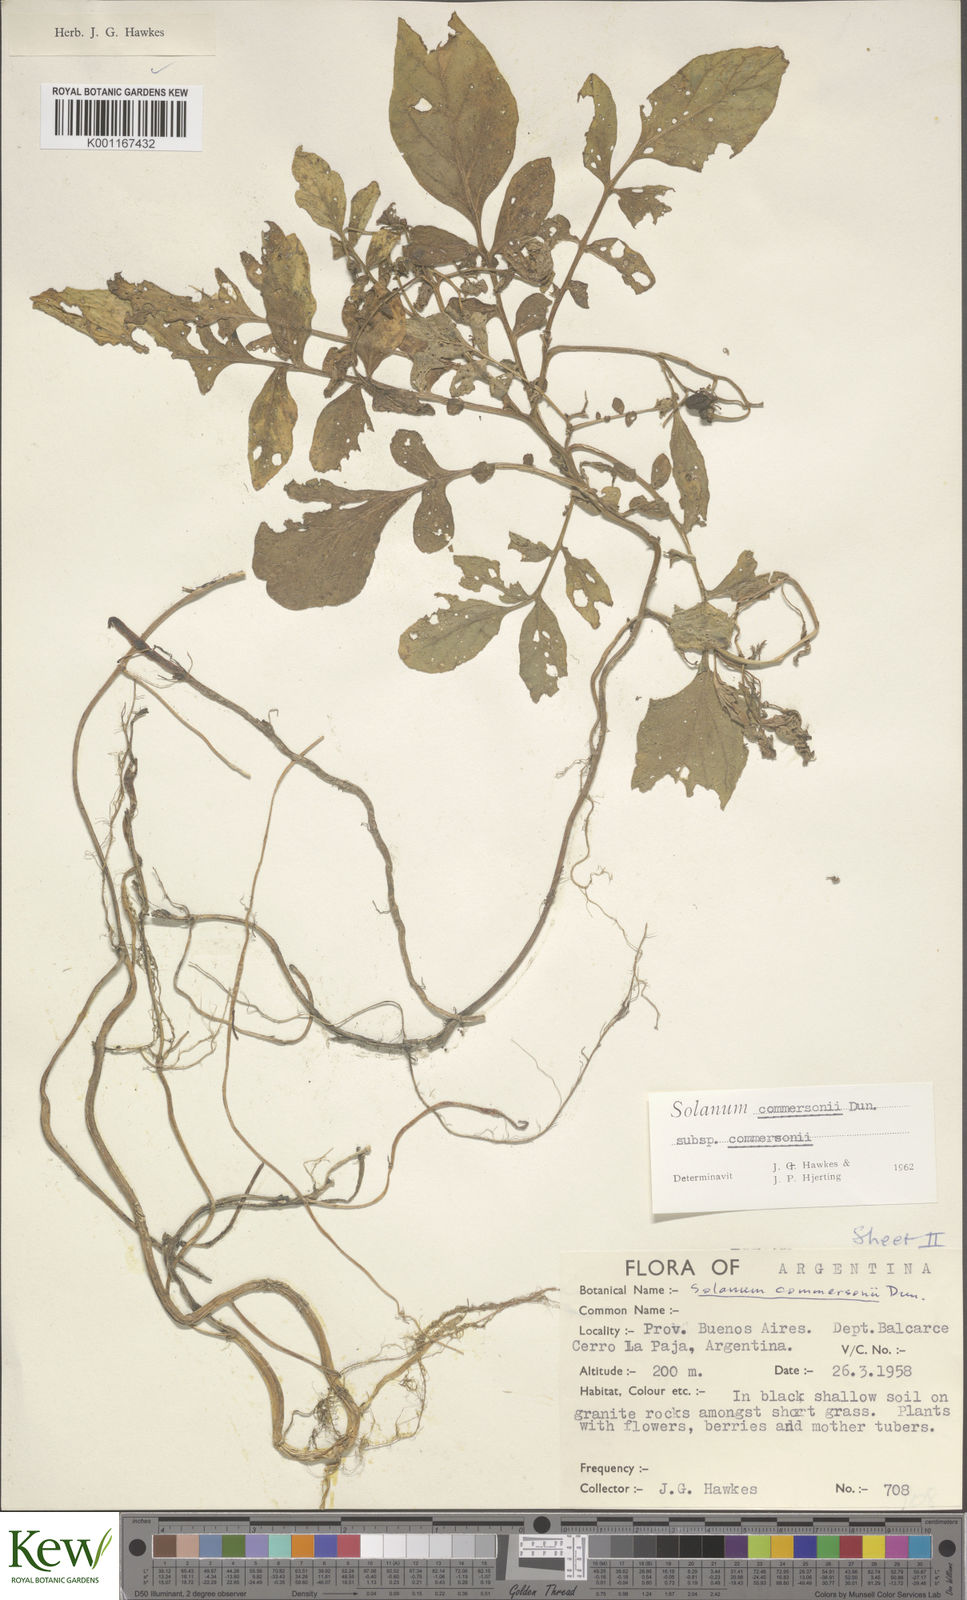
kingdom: Plantae
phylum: Tracheophyta
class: Magnoliopsida
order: Solanales
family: Solanaceae
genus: Solanum
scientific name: Solanum commersonii
